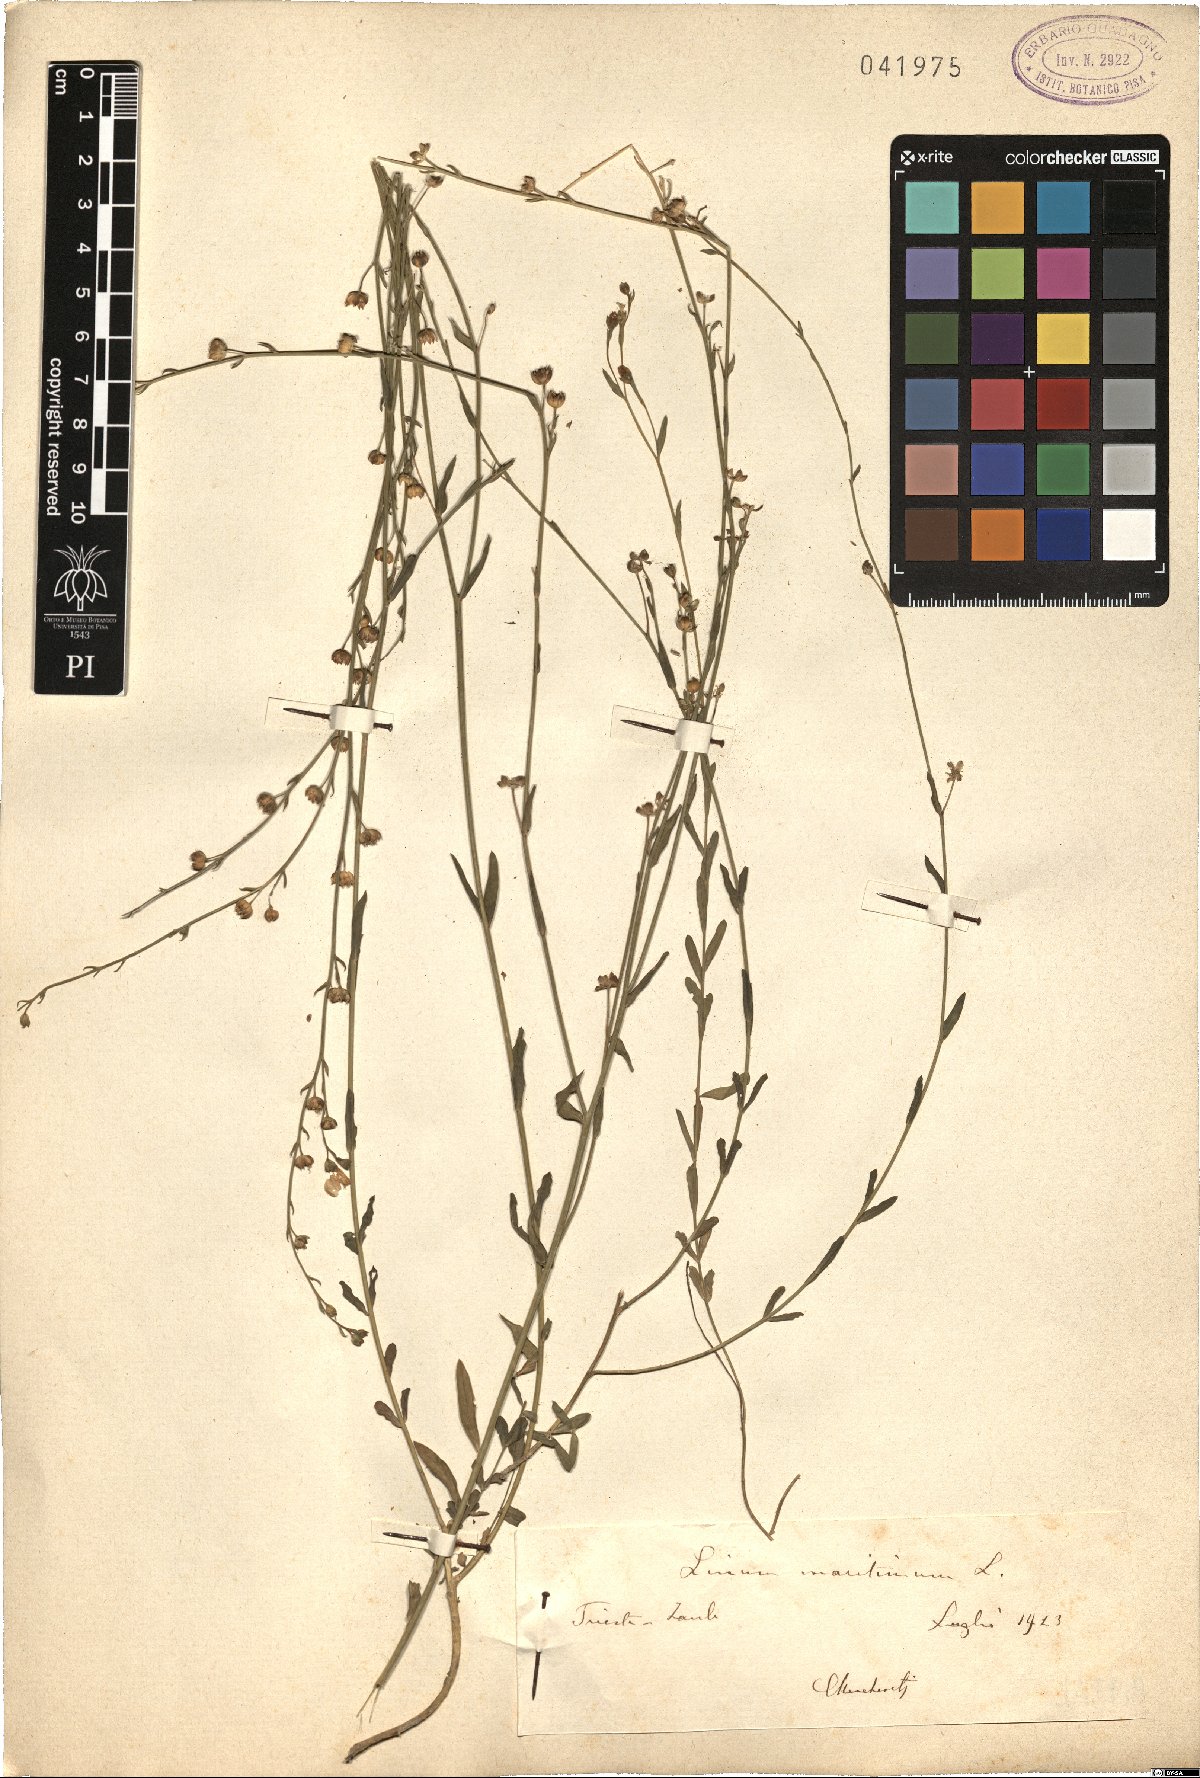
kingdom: Plantae
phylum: Tracheophyta
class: Magnoliopsida
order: Malpighiales
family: Linaceae
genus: Linum
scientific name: Linum maritimum
